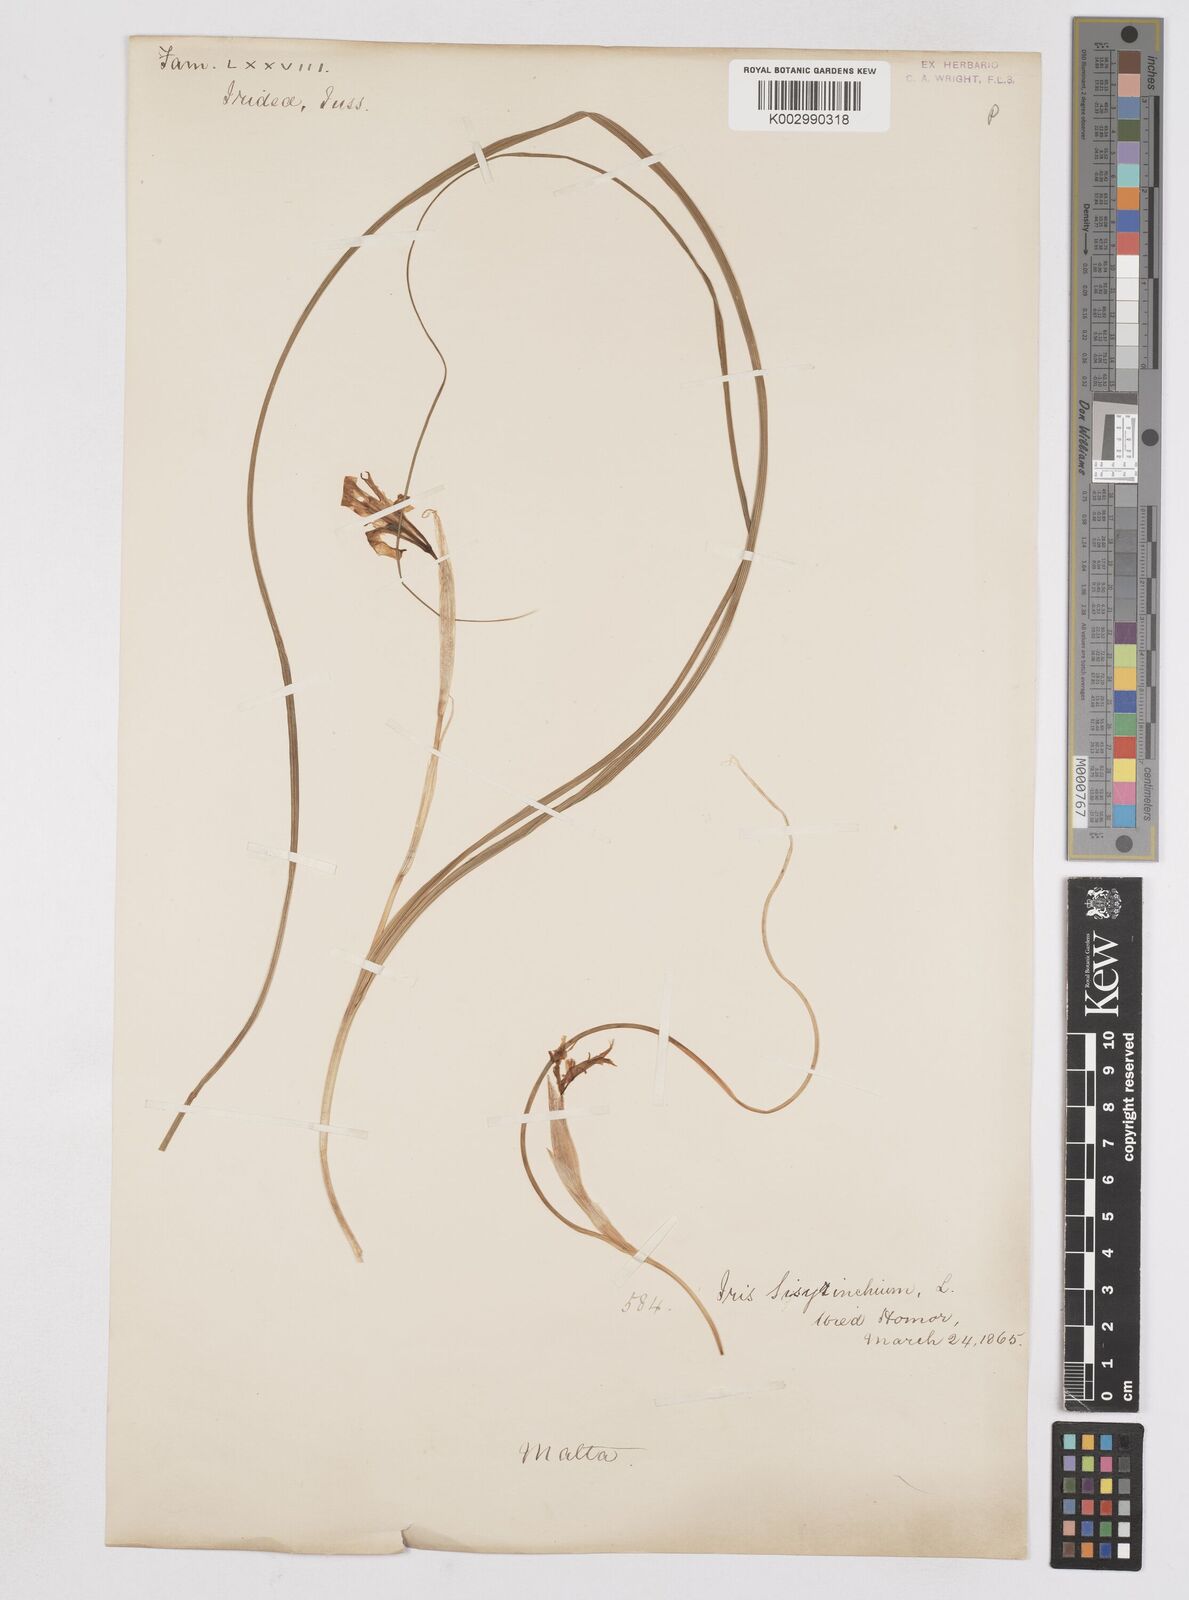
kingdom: Plantae
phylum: Tracheophyta
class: Liliopsida
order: Asparagales
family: Iridaceae
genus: Moraea
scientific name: Moraea sisyrinchium
